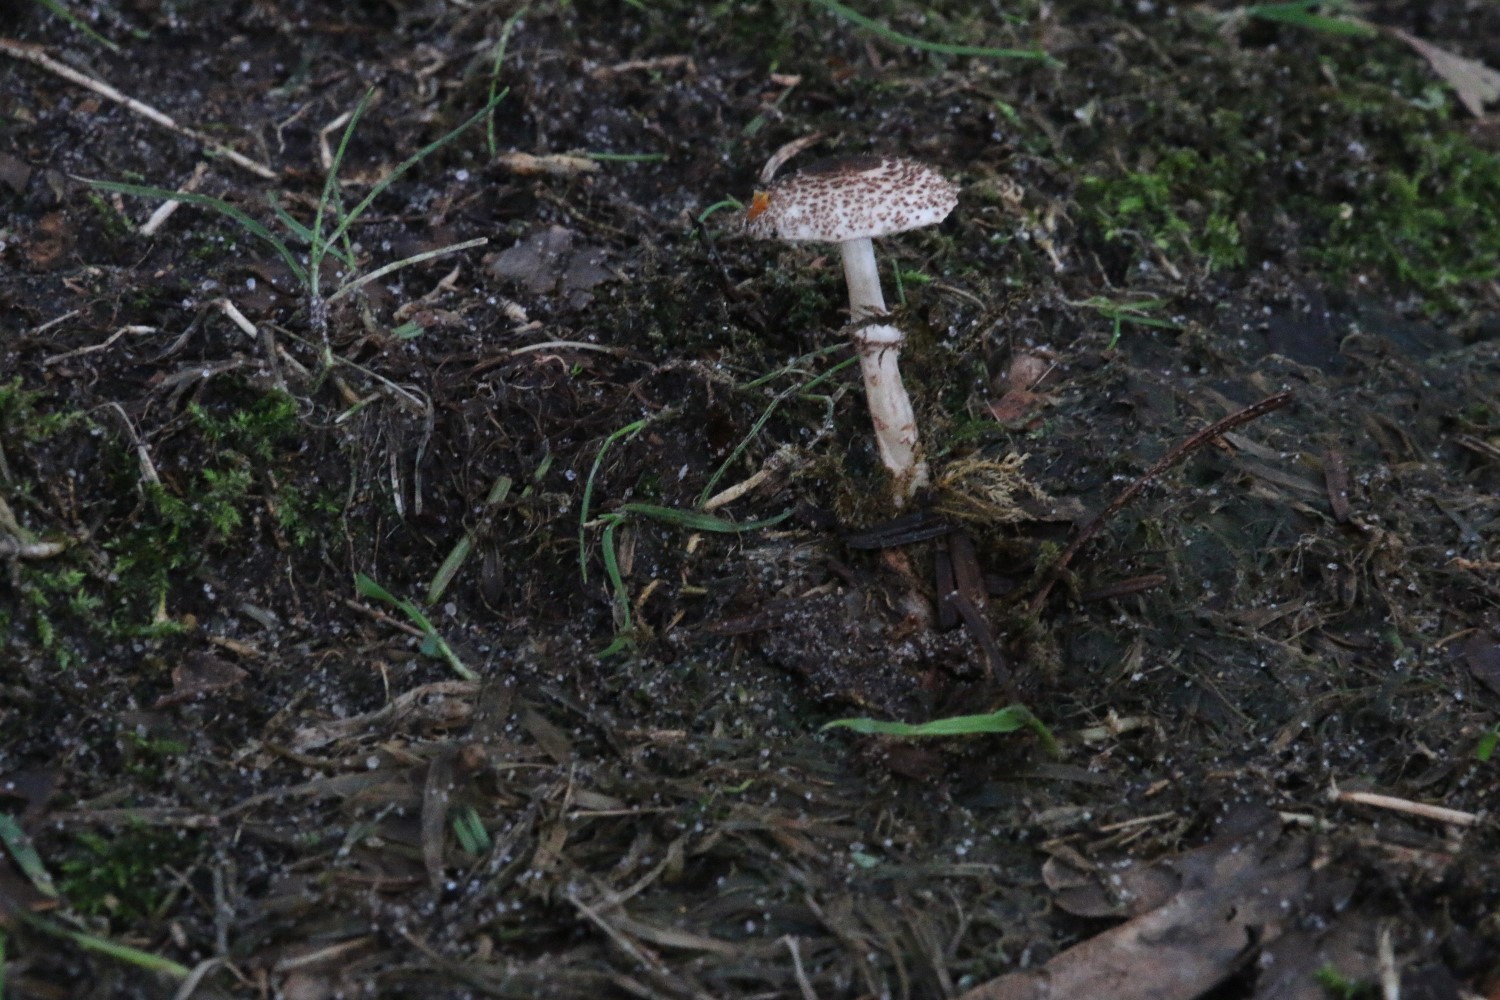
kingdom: Fungi
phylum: Basidiomycota
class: Agaricomycetes
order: Agaricales
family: Agaricaceae
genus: Lepiota
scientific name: Lepiota felina
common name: sortskællet parasolhat
